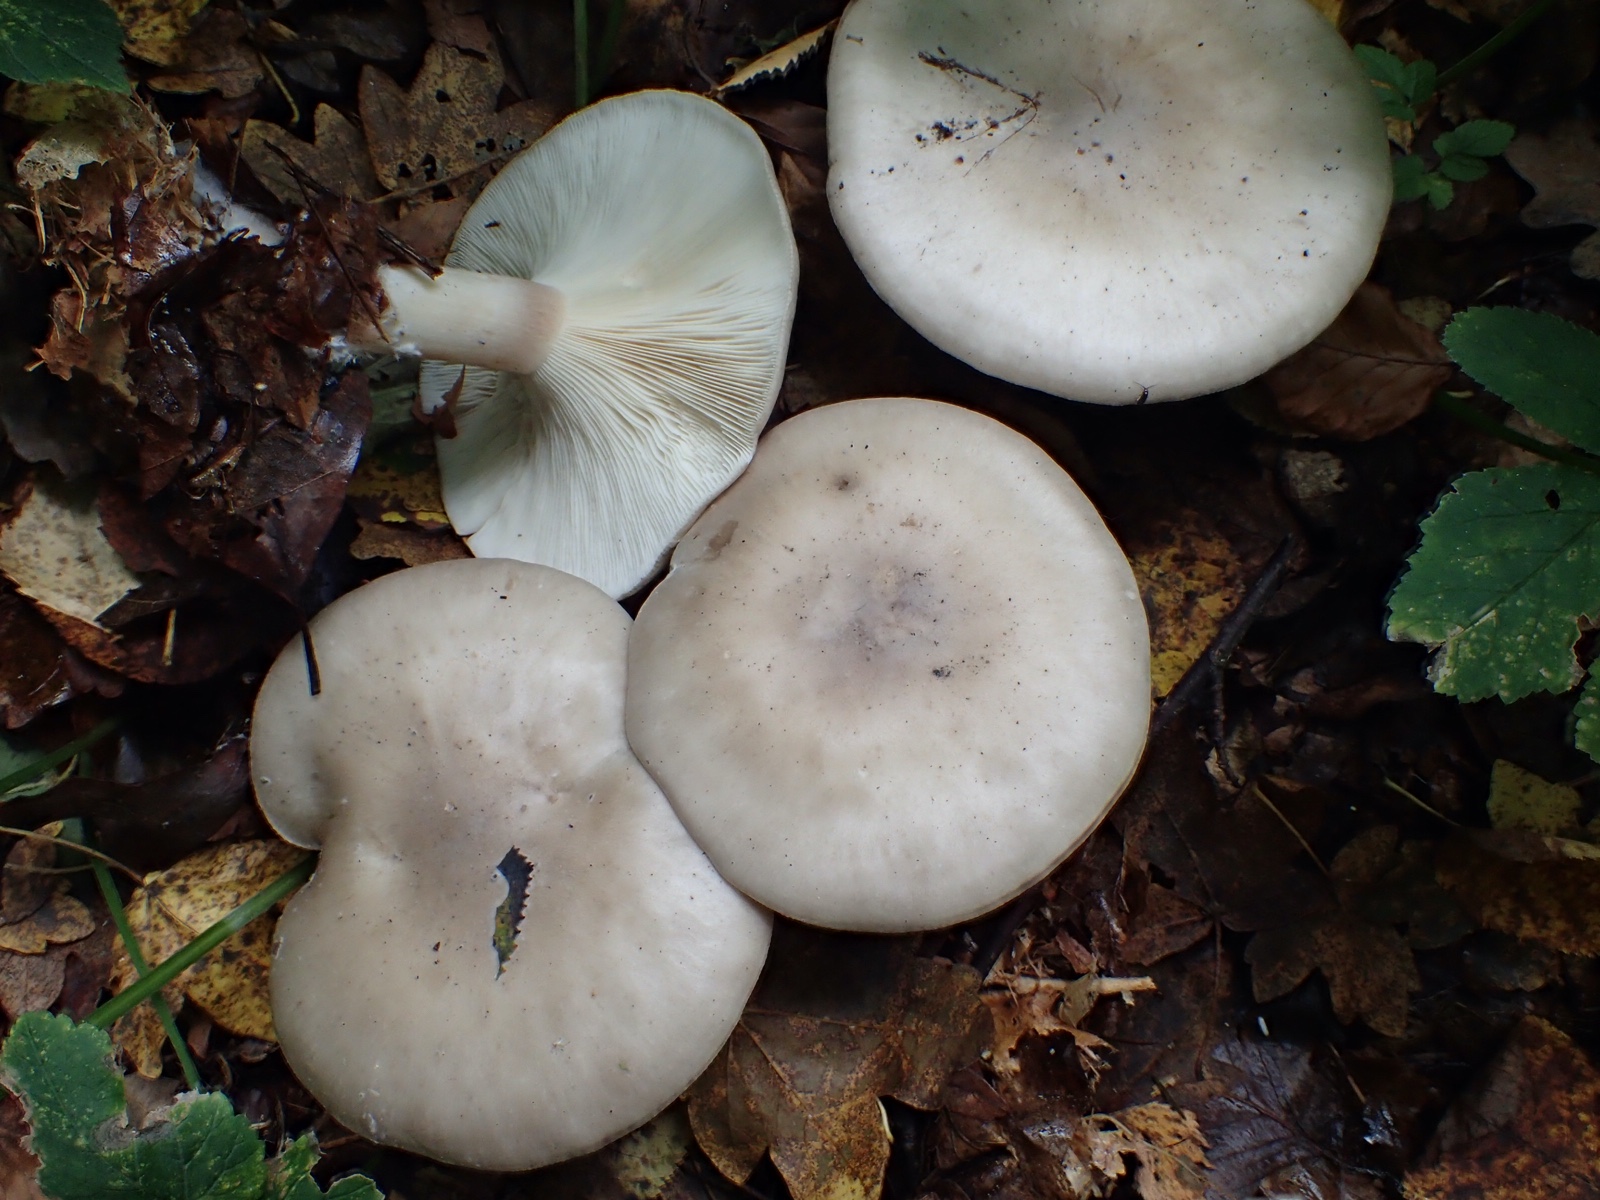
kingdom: Fungi
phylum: Basidiomycota
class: Agaricomycetes
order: Agaricales
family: Tricholomataceae
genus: Clitocybe
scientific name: Clitocybe nebularis
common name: tåge-tragthat
